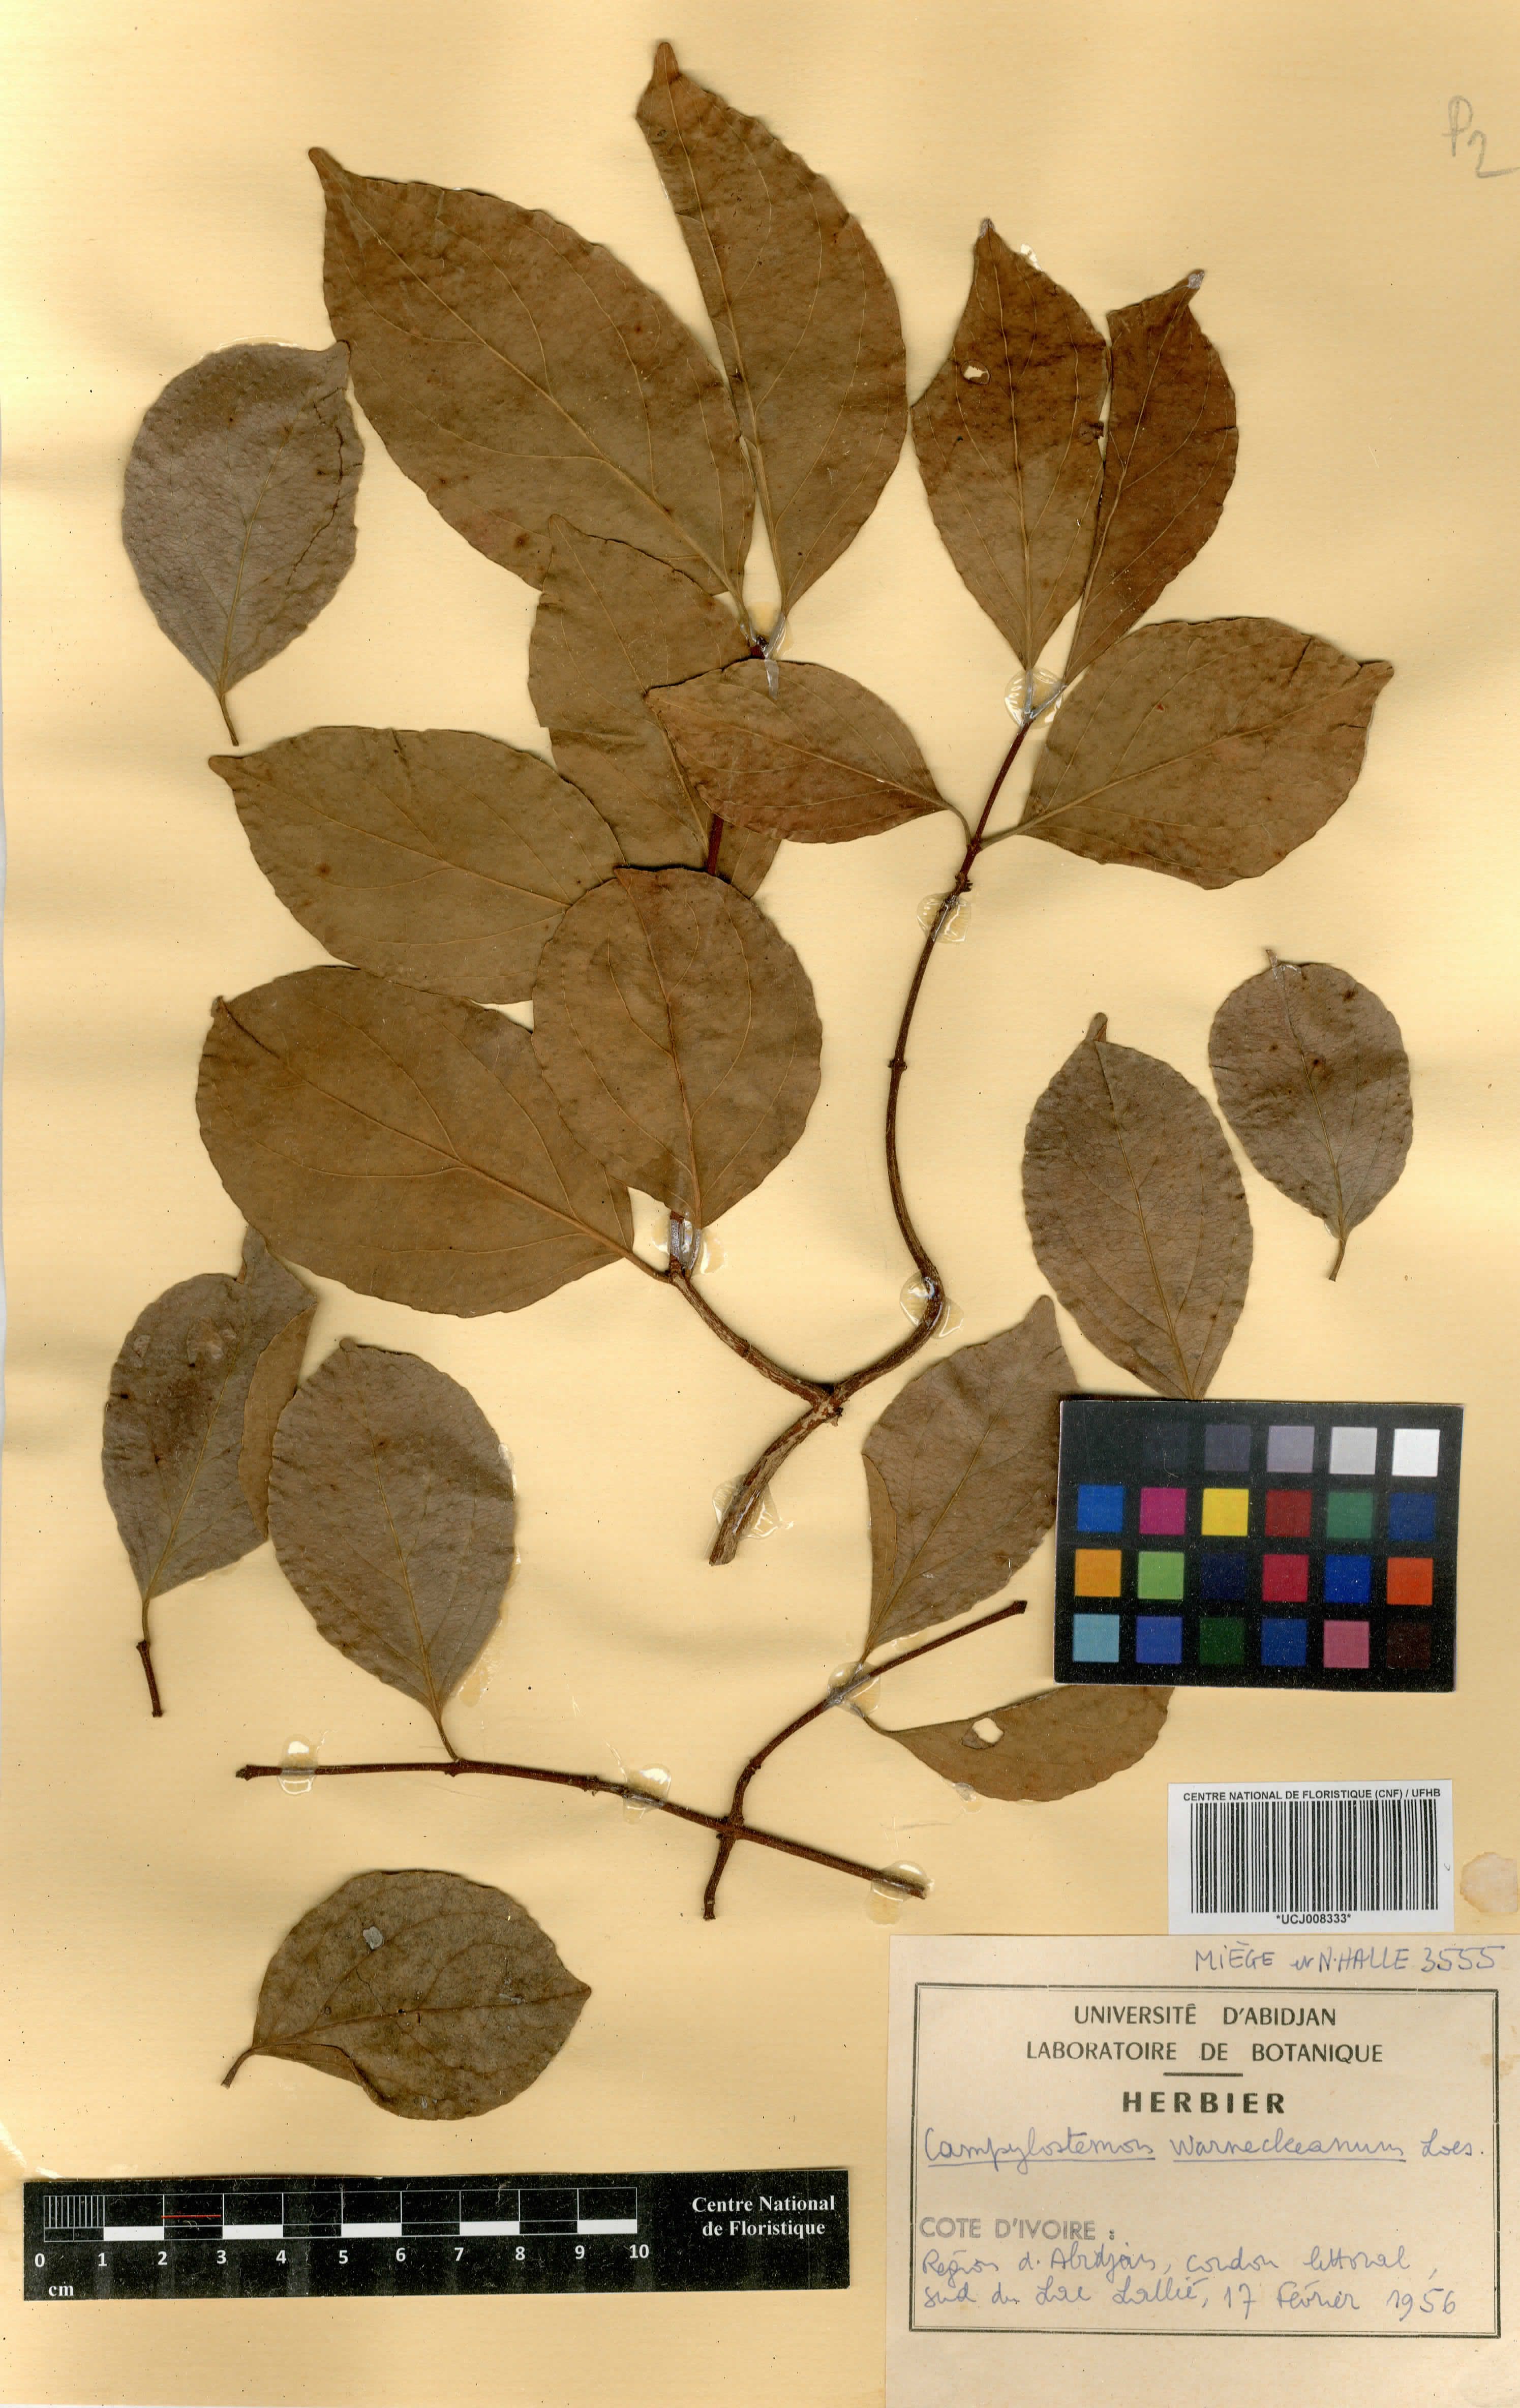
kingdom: Plantae
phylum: Tracheophyta
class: Magnoliopsida
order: Celastrales
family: Celastraceae
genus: Campylostemon
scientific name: Campylostemon warneckeanum
